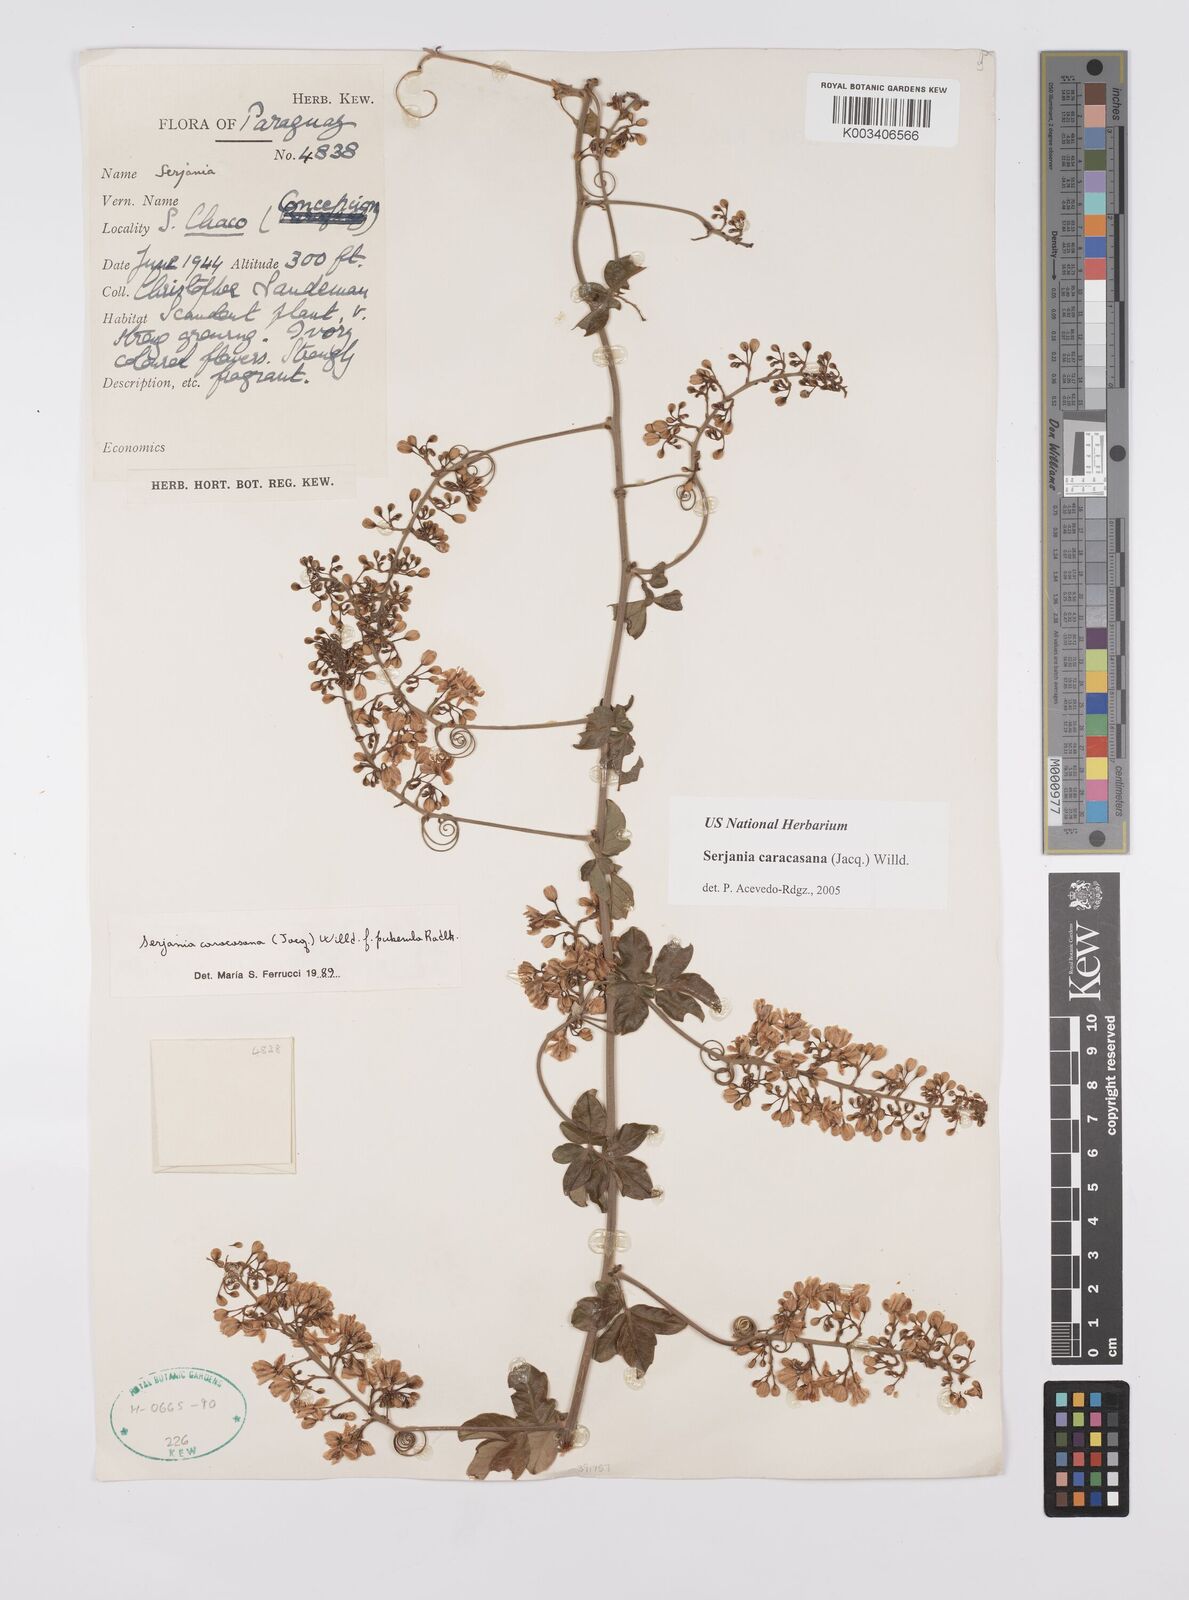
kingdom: Plantae
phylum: Tracheophyta
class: Magnoliopsida
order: Sapindales
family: Sapindaceae
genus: Serjania
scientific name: Serjania caracasana
